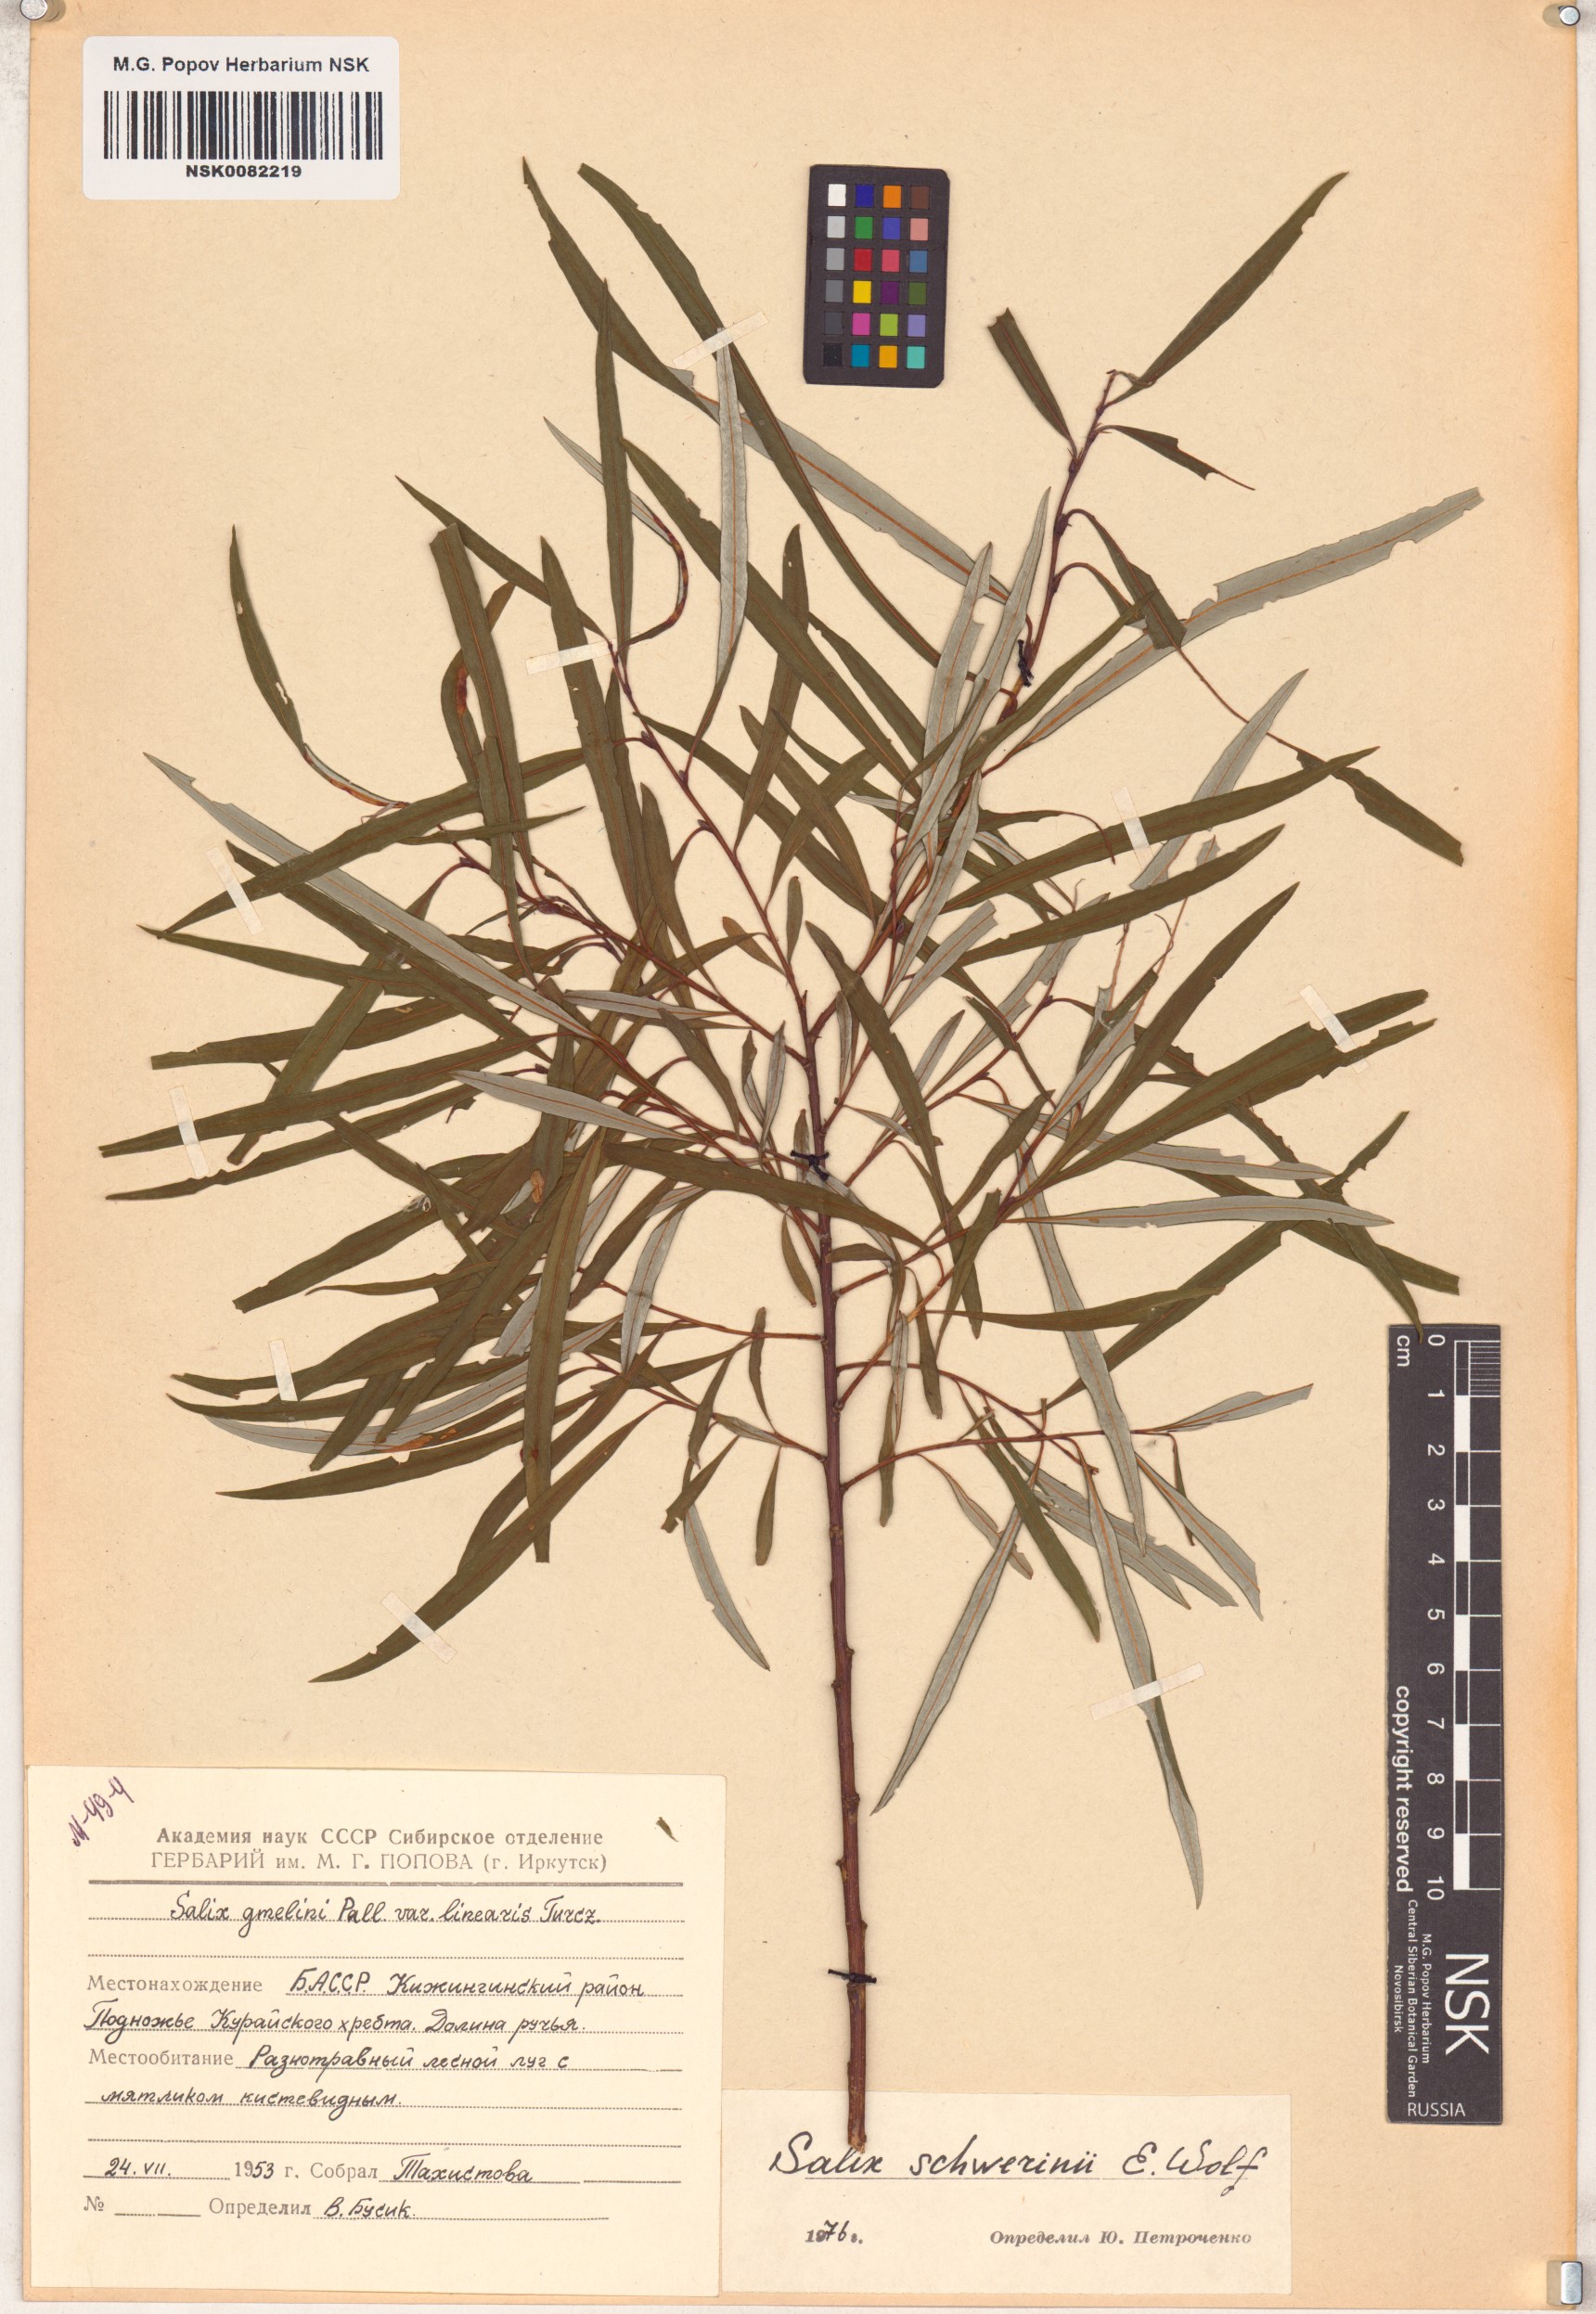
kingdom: Plantae
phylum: Tracheophyta
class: Magnoliopsida
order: Malpighiales
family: Salicaceae
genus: Salix
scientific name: Salix schwerinii
